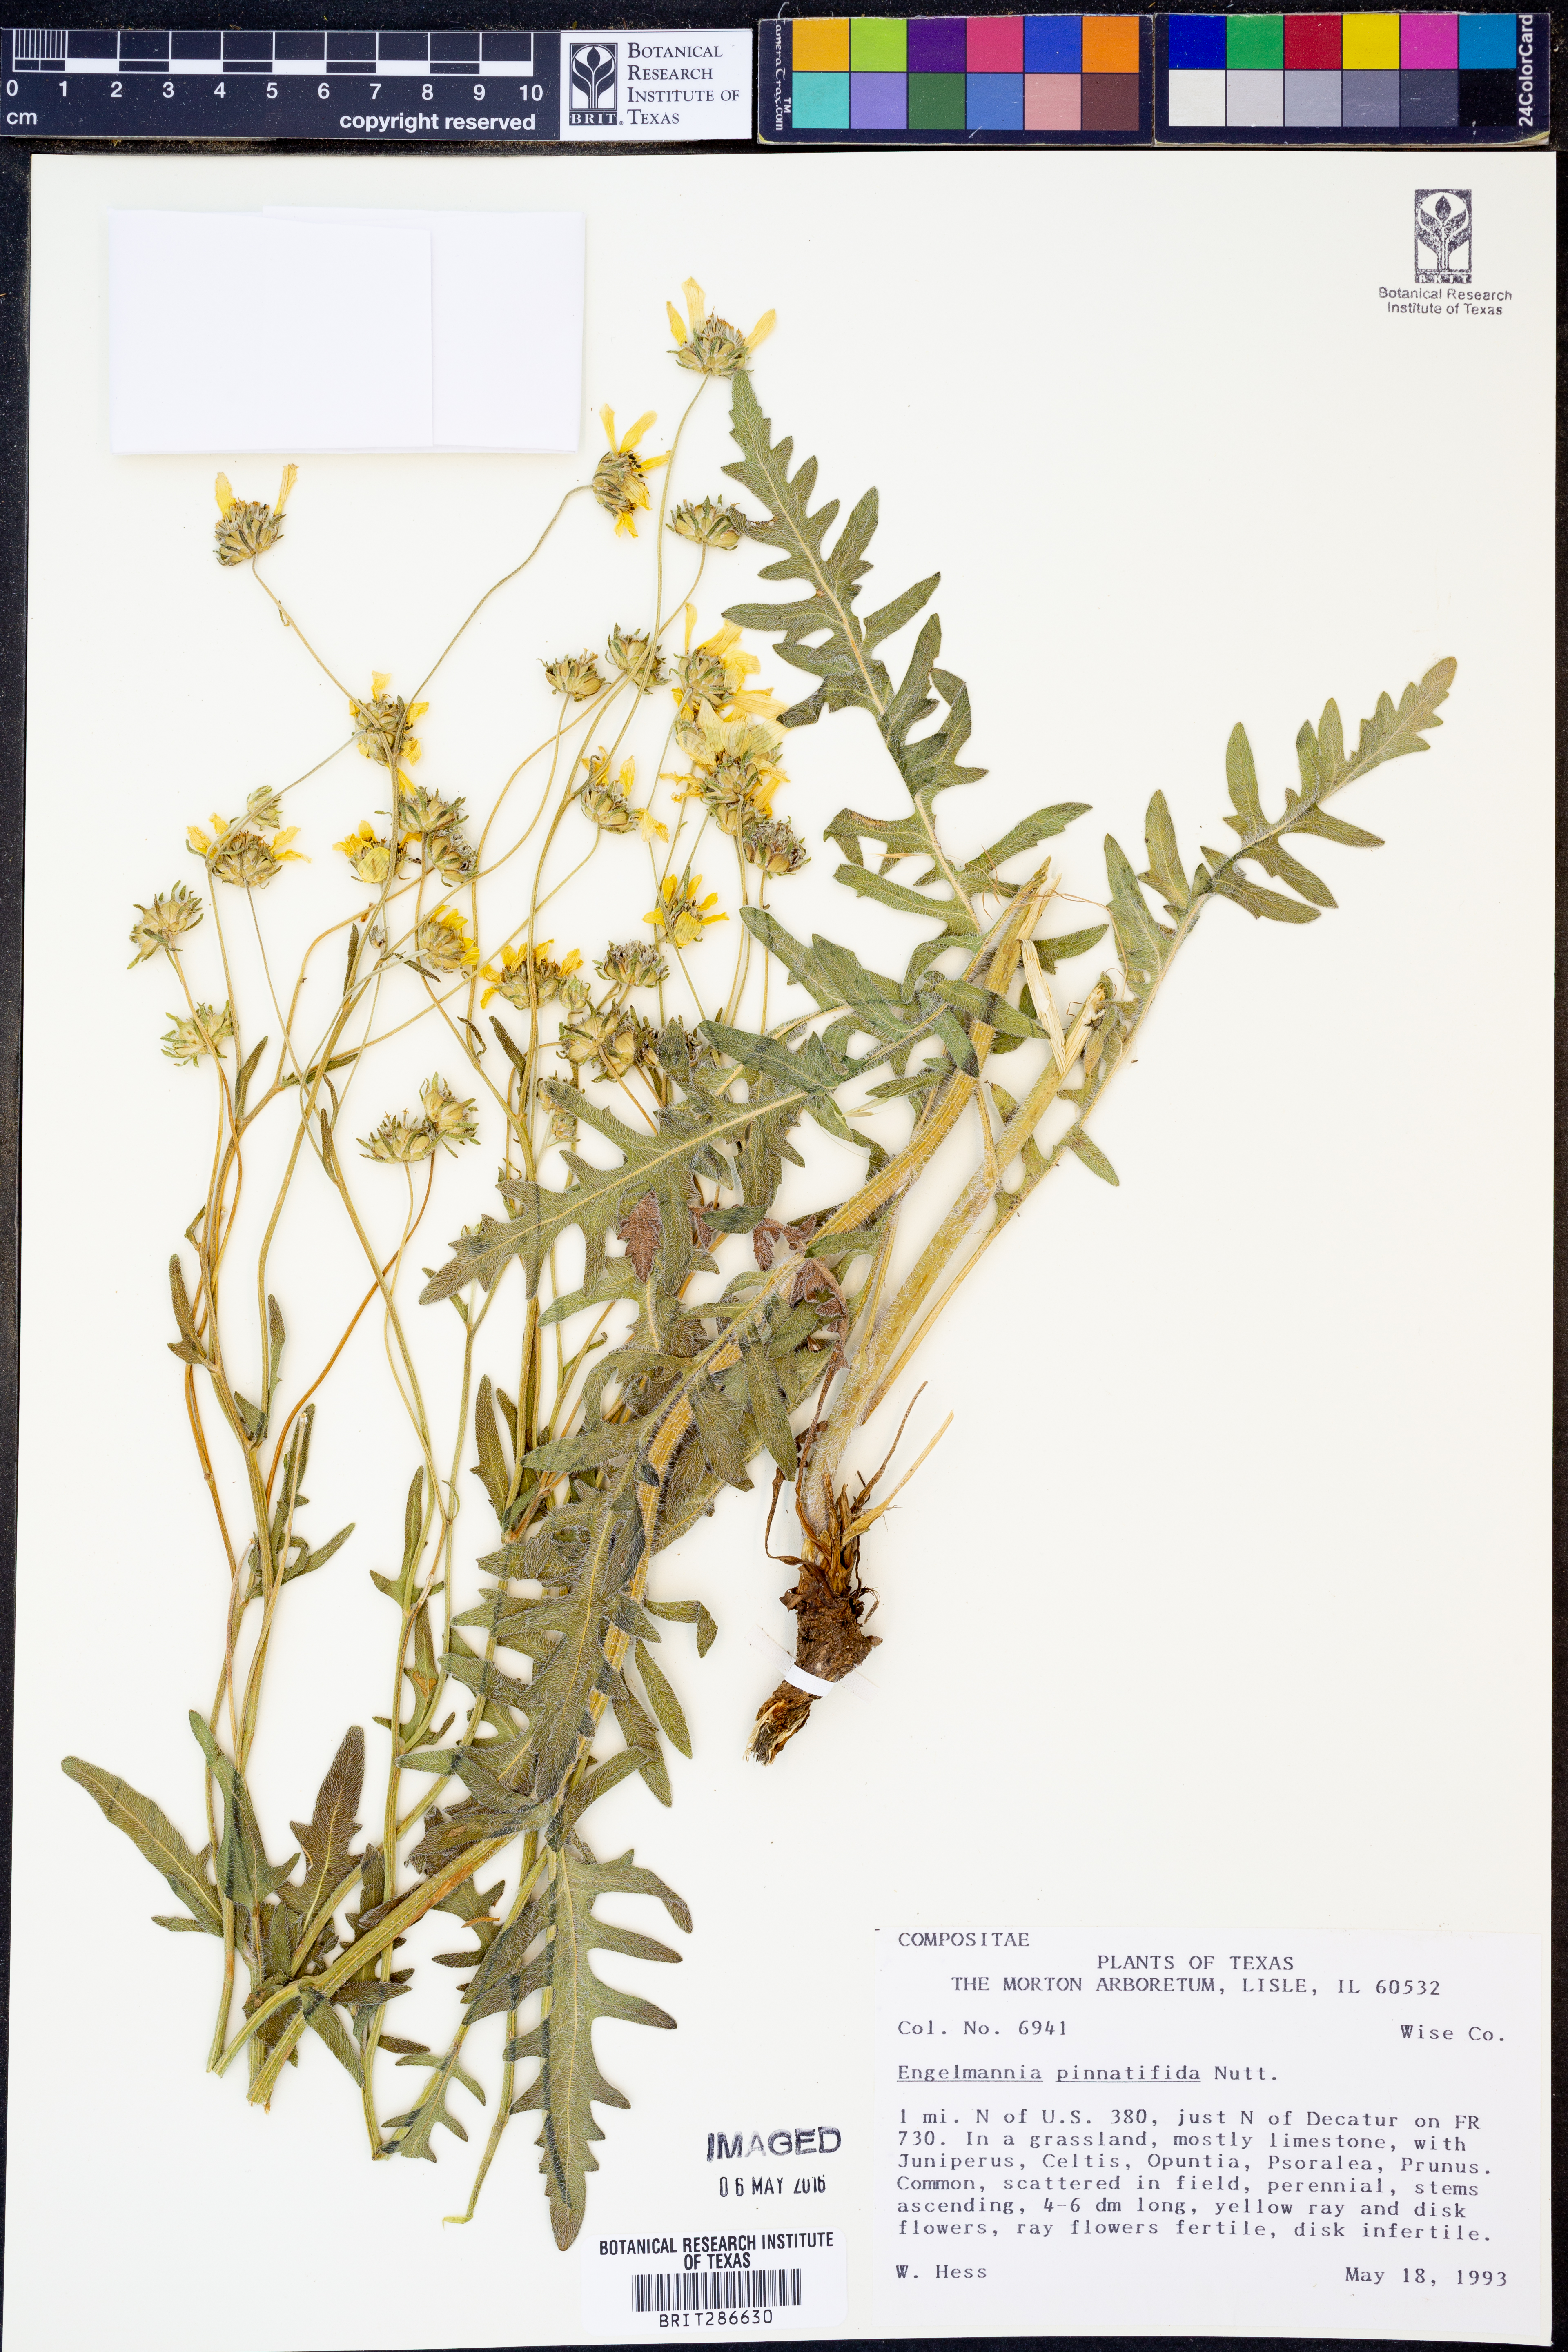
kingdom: Plantae
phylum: Tracheophyta
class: Magnoliopsida
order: Asterales
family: Asteraceae
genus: Engelmannia
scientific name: Engelmannia peristenia
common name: Engelmann's daisy
